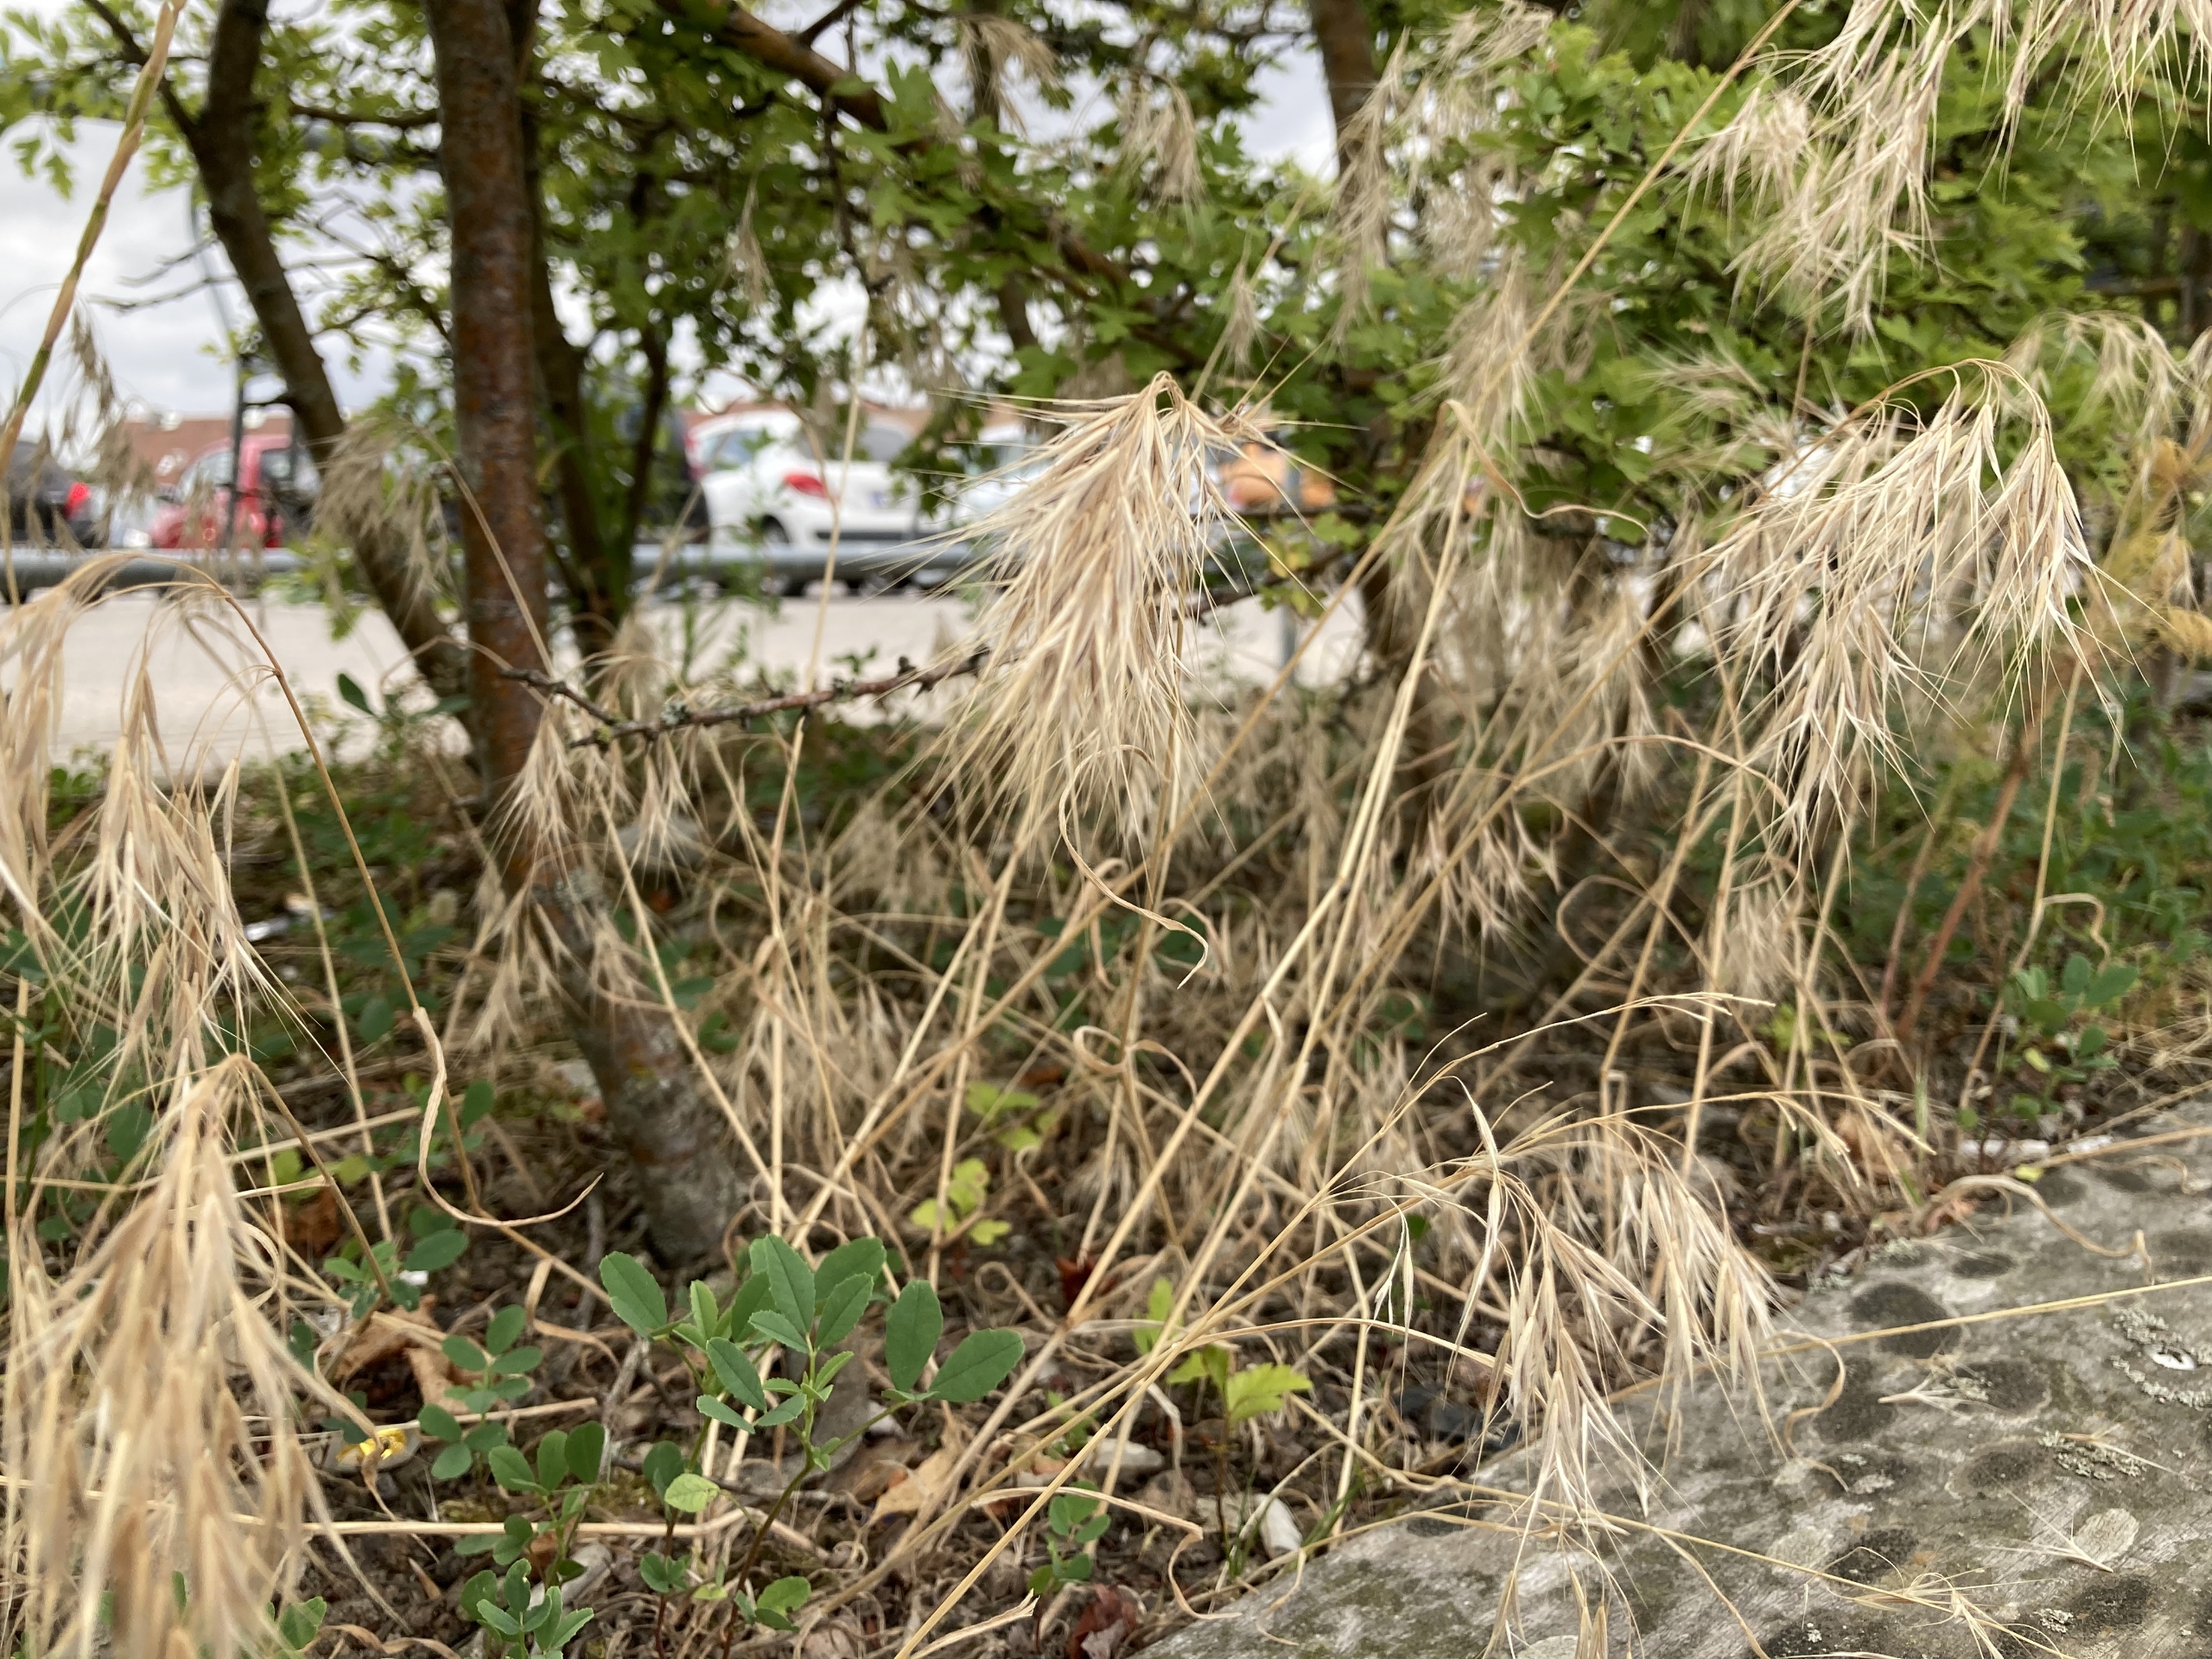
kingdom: Plantae
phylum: Tracheophyta
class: Liliopsida
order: Poales
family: Poaceae
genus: Bromus
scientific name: Bromus tectorum
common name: Tag-hejre
